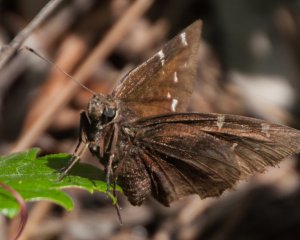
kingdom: Animalia
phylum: Arthropoda
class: Insecta
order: Lepidoptera
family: Hesperiidae
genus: Autochton
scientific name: Autochton
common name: Northern Cloudywing
